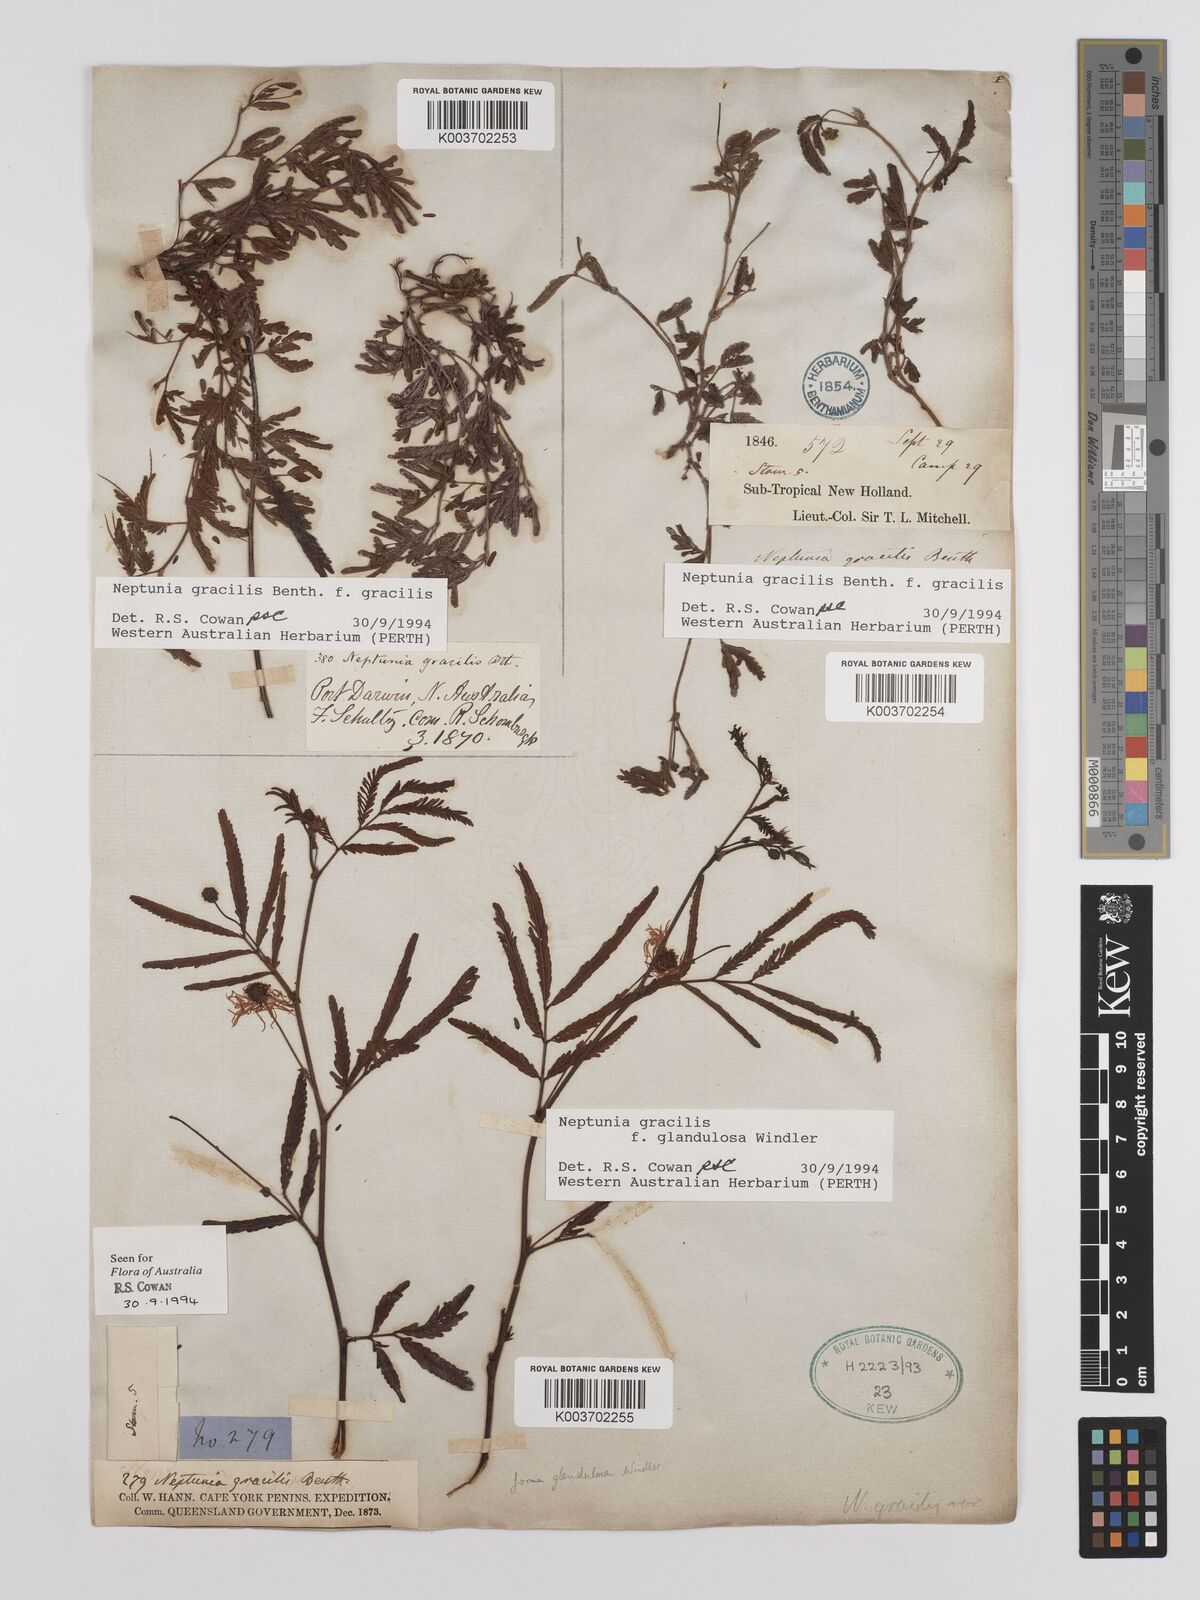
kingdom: Plantae
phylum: Tracheophyta
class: Magnoliopsida
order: Fabales
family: Fabaceae
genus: Neptunia
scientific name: Neptunia gracilis
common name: Sensitive-plant
